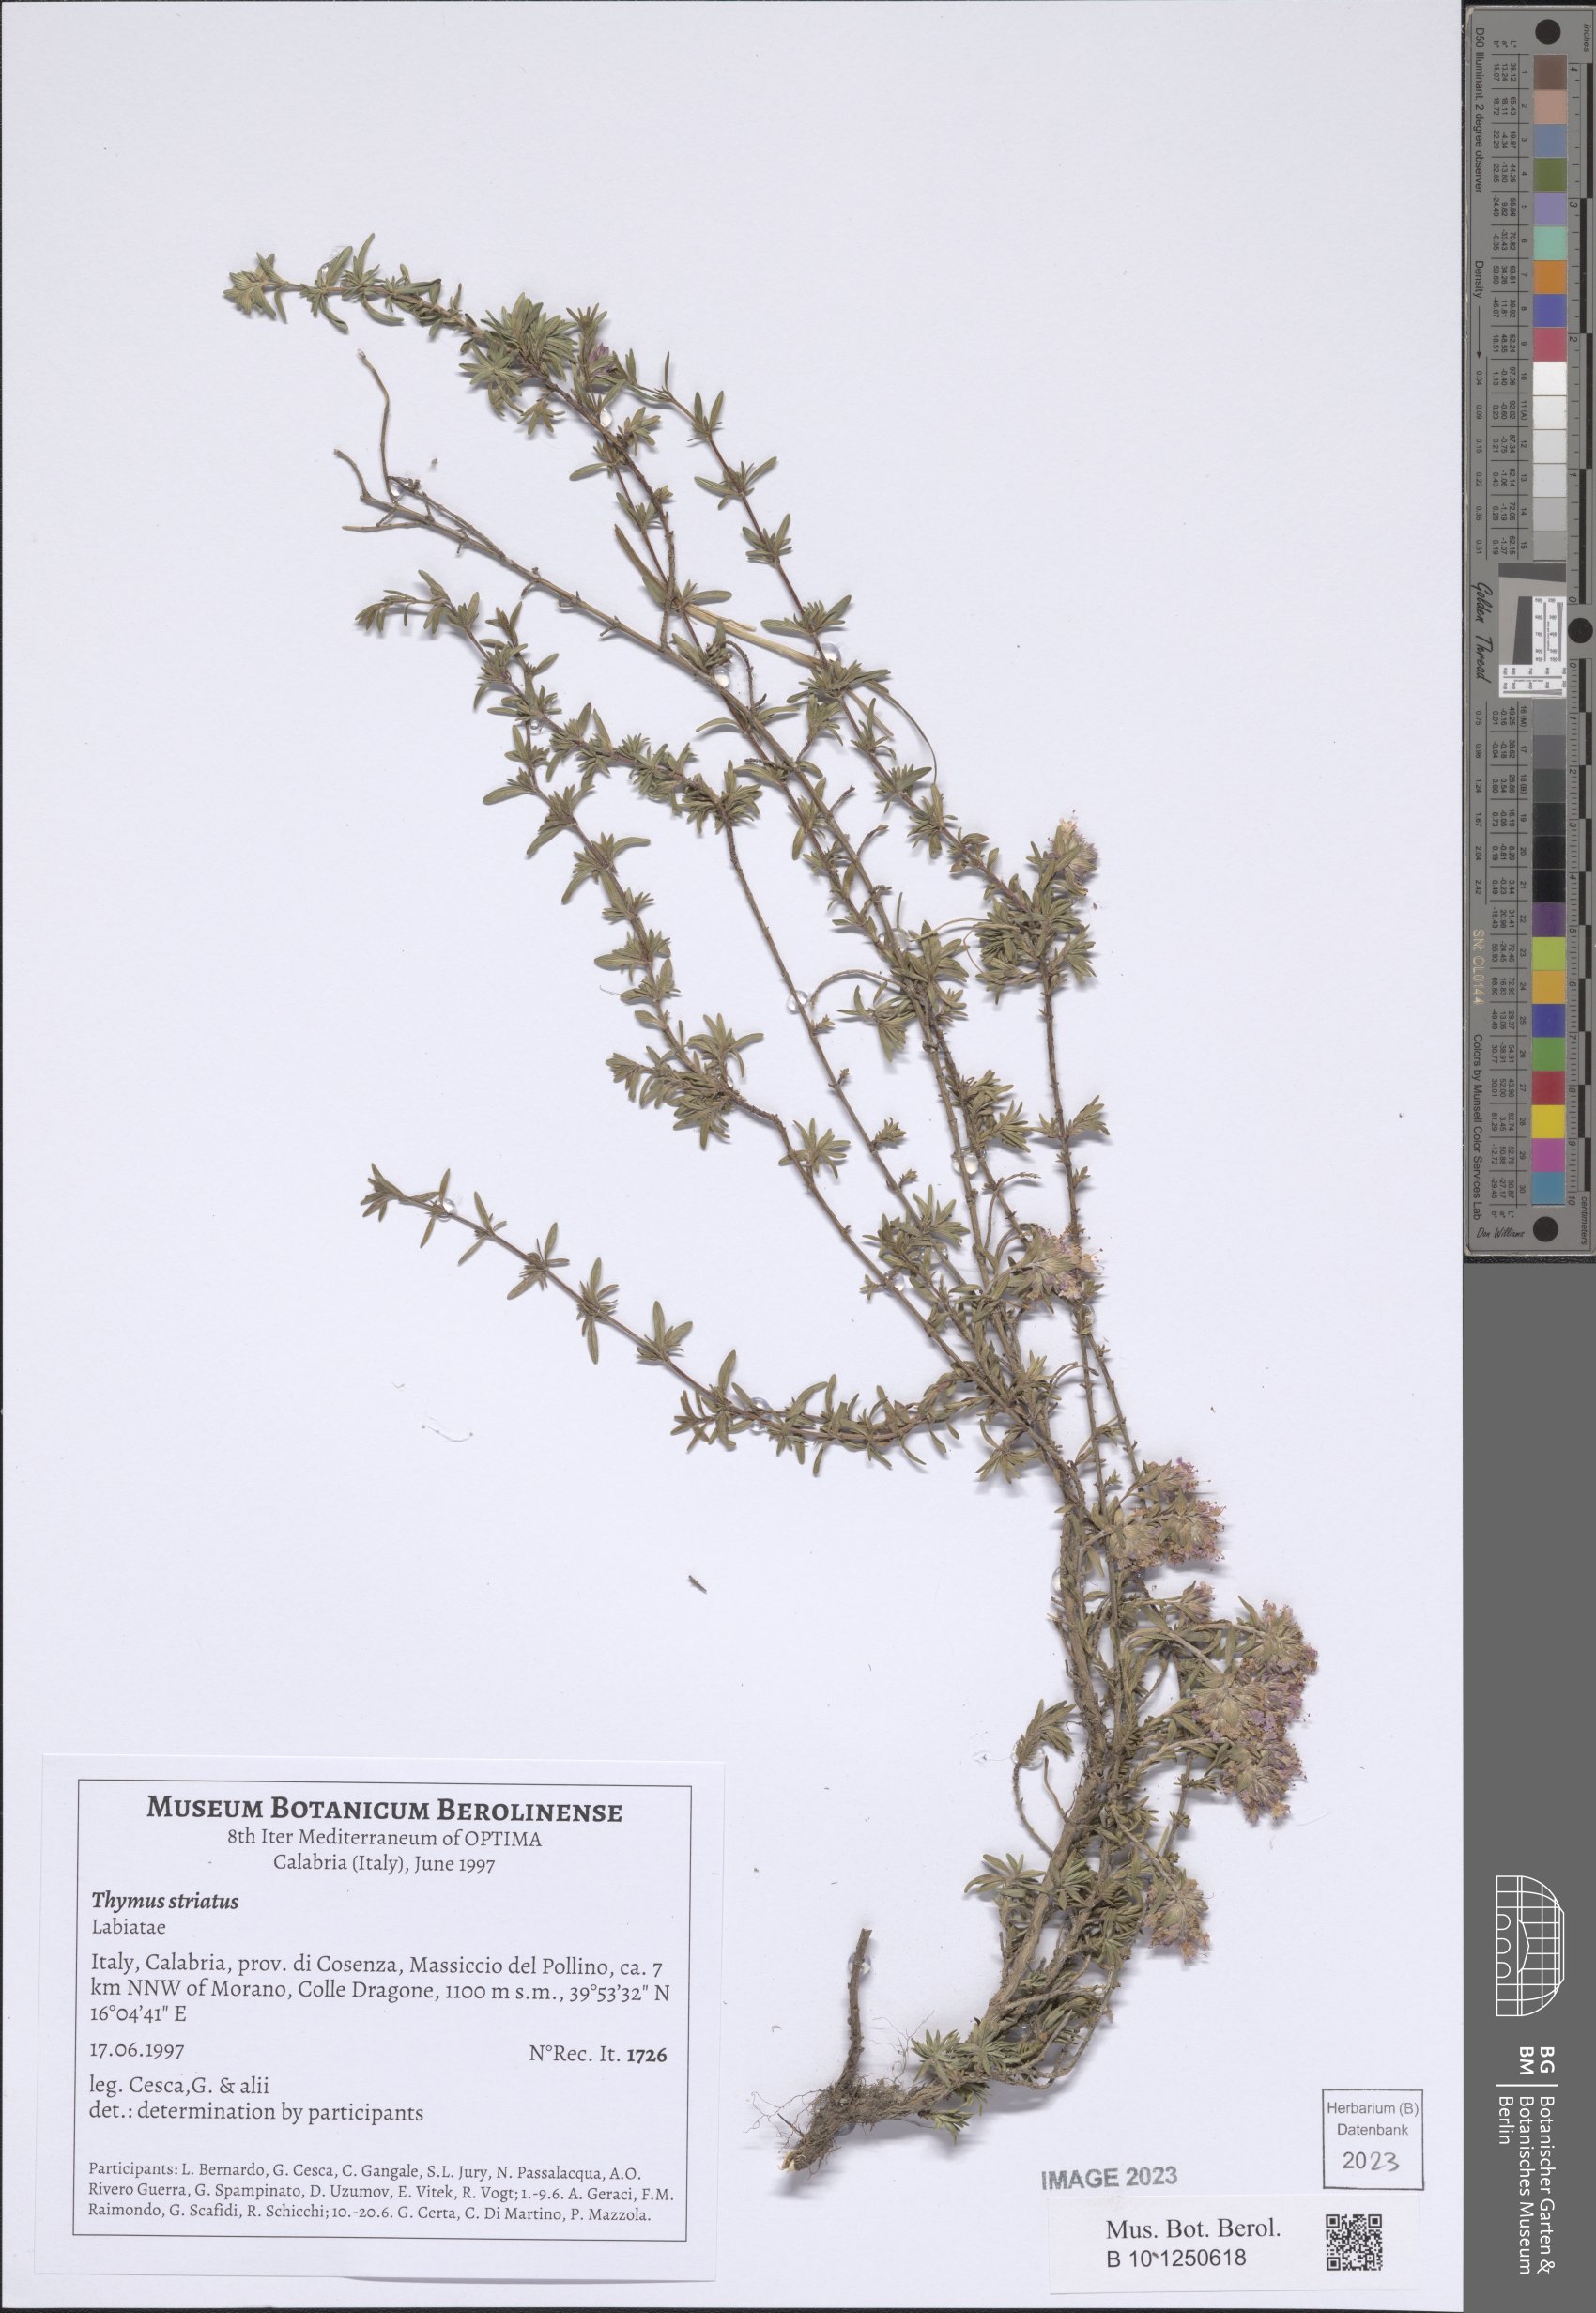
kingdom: Plantae
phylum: Tracheophyta
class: Magnoliopsida
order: Lamiales
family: Lamiaceae
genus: Thymus
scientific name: Thymus striatus
